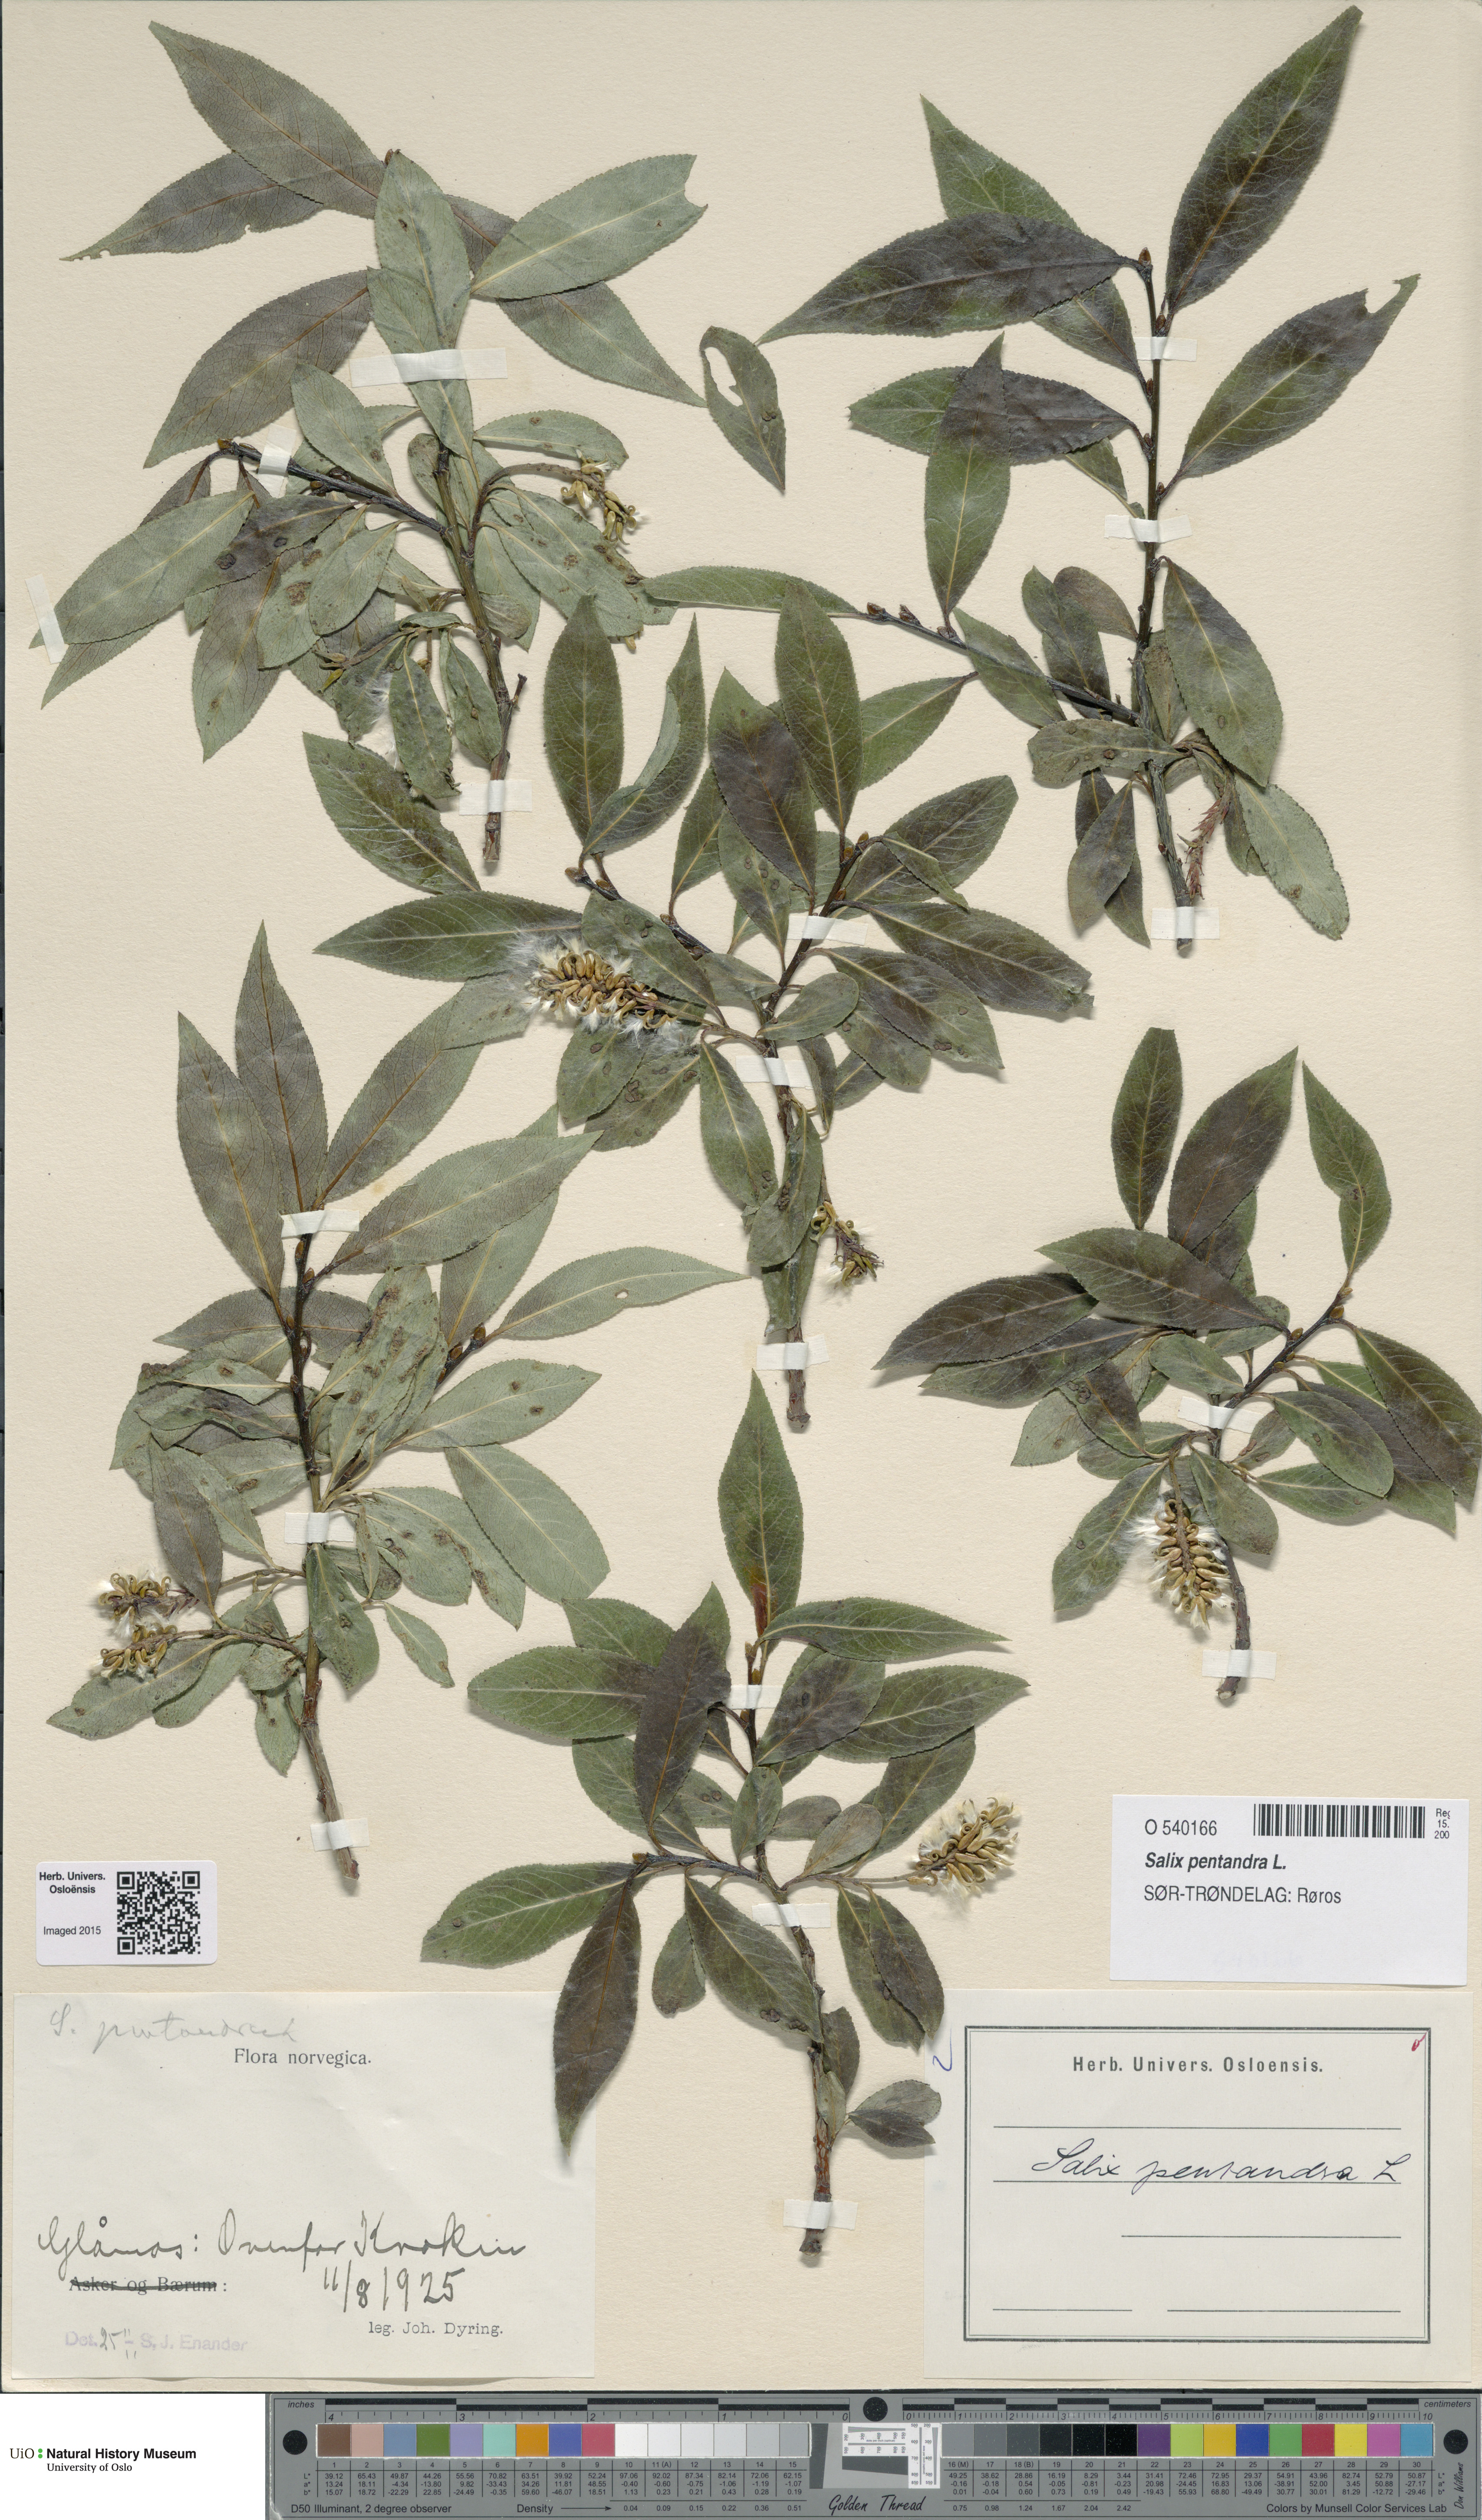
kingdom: Plantae
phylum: Tracheophyta
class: Magnoliopsida
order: Malpighiales
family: Salicaceae
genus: Salix
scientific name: Salix pentandra
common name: Bay willow
